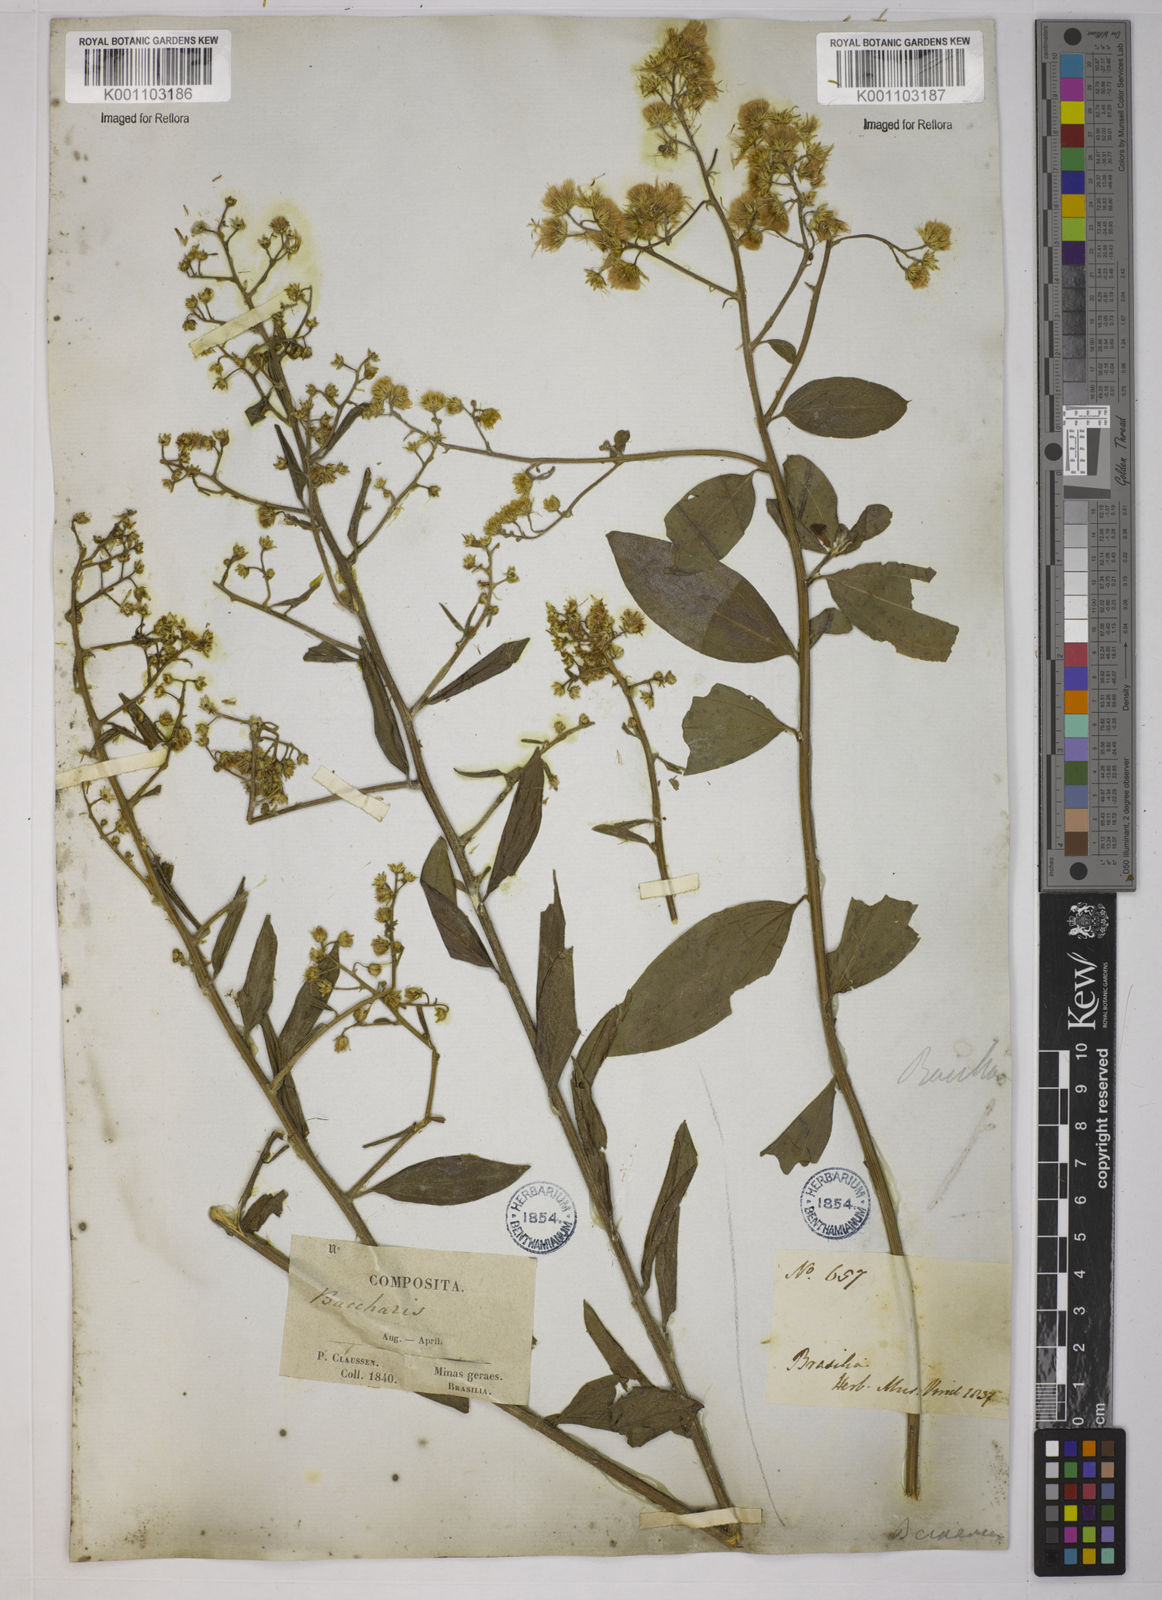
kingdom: Plantae
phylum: Tracheophyta
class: Magnoliopsida
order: Asterales
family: Asteraceae
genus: Baccharis
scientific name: Baccharis trinervis
